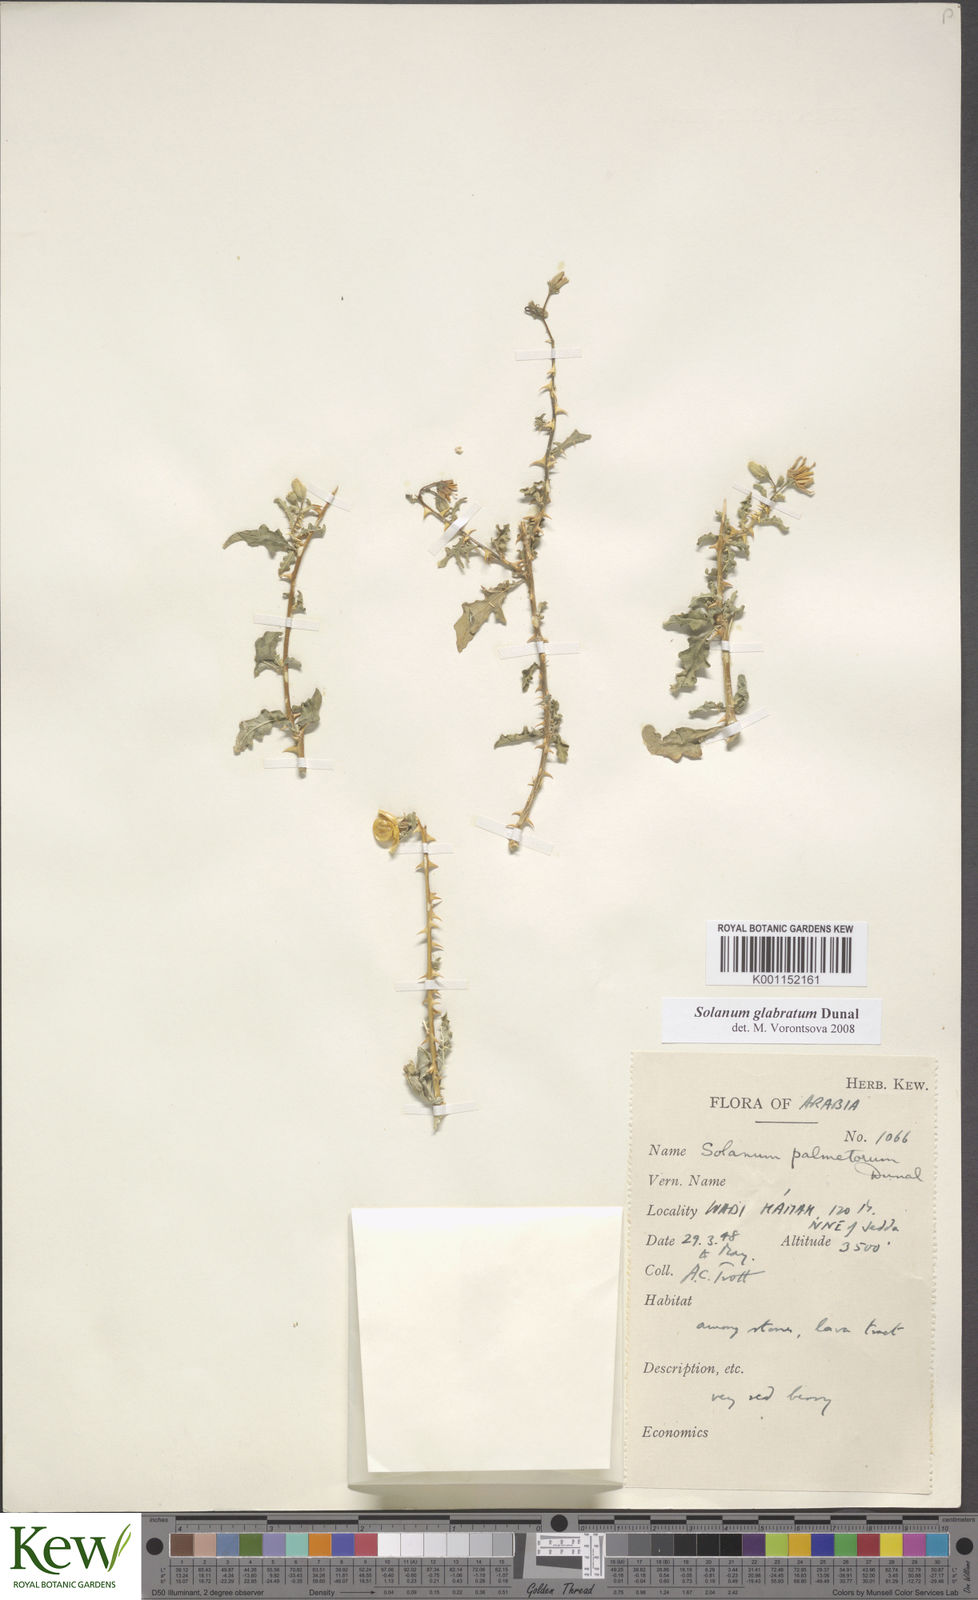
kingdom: Plantae
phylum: Tracheophyta
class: Magnoliopsida
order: Solanales
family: Solanaceae
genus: Solanum
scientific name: Solanum glabratum
